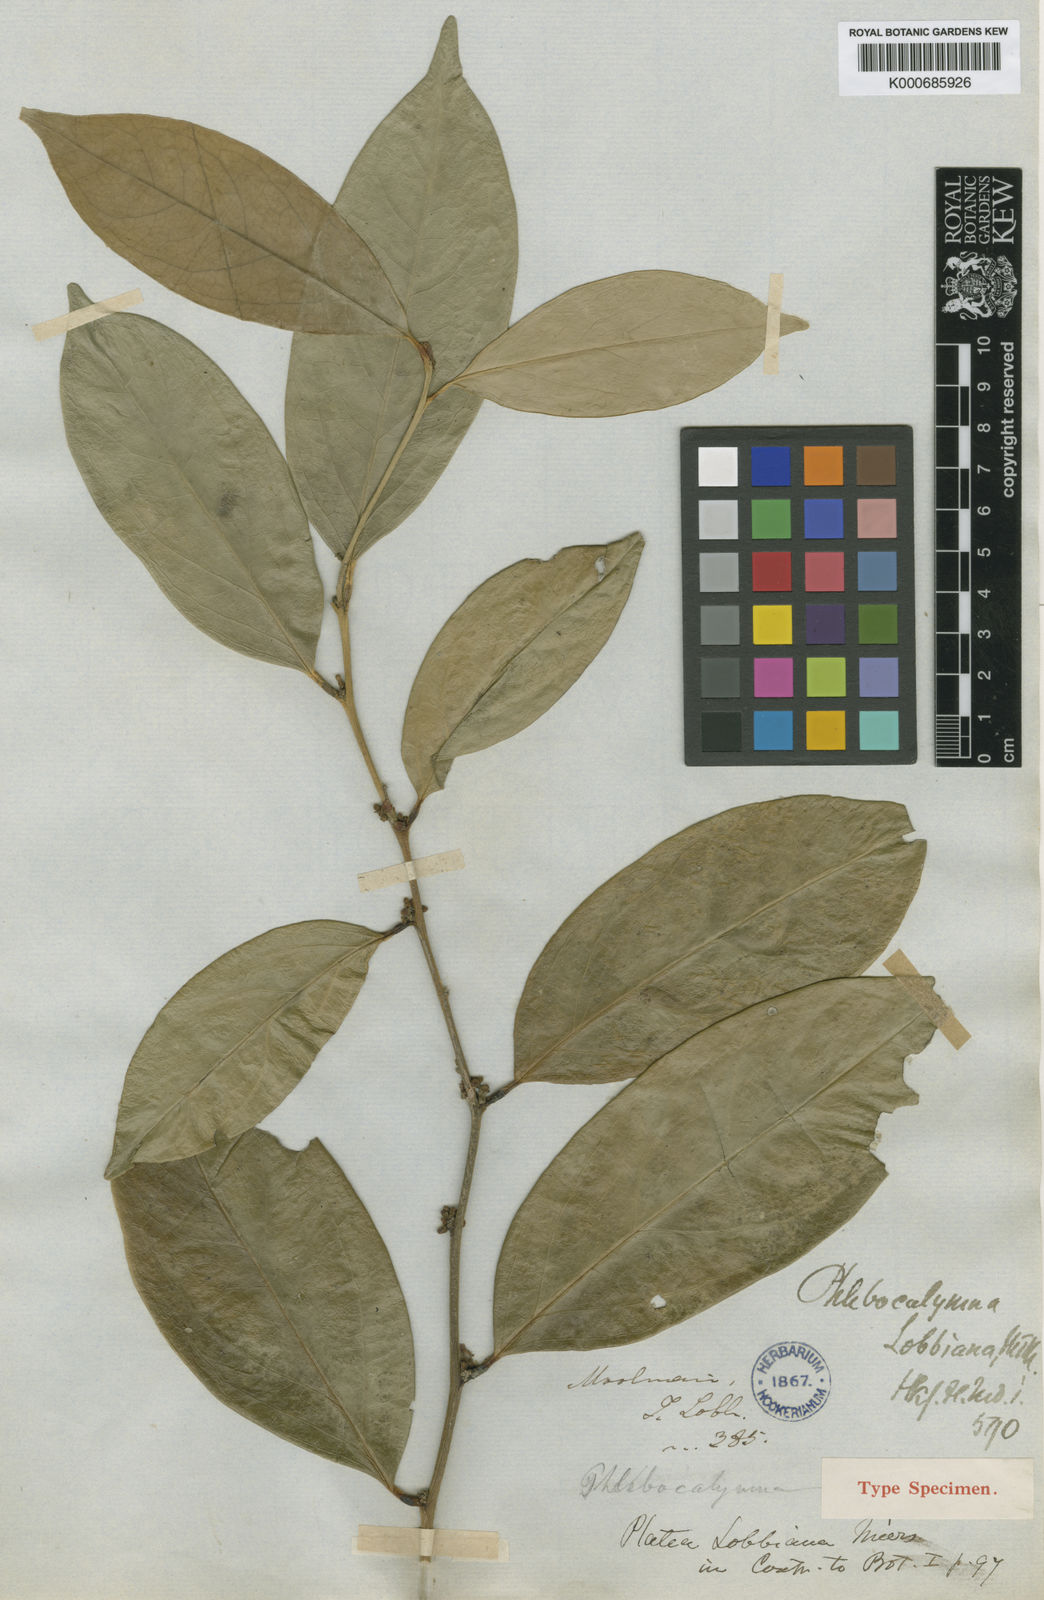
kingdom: Plantae
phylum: Tracheophyta
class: Magnoliopsida
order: Cardiopteridales
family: Cardiopteridaceae
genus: Gonocaryum
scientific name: Gonocaryum lobbianum
